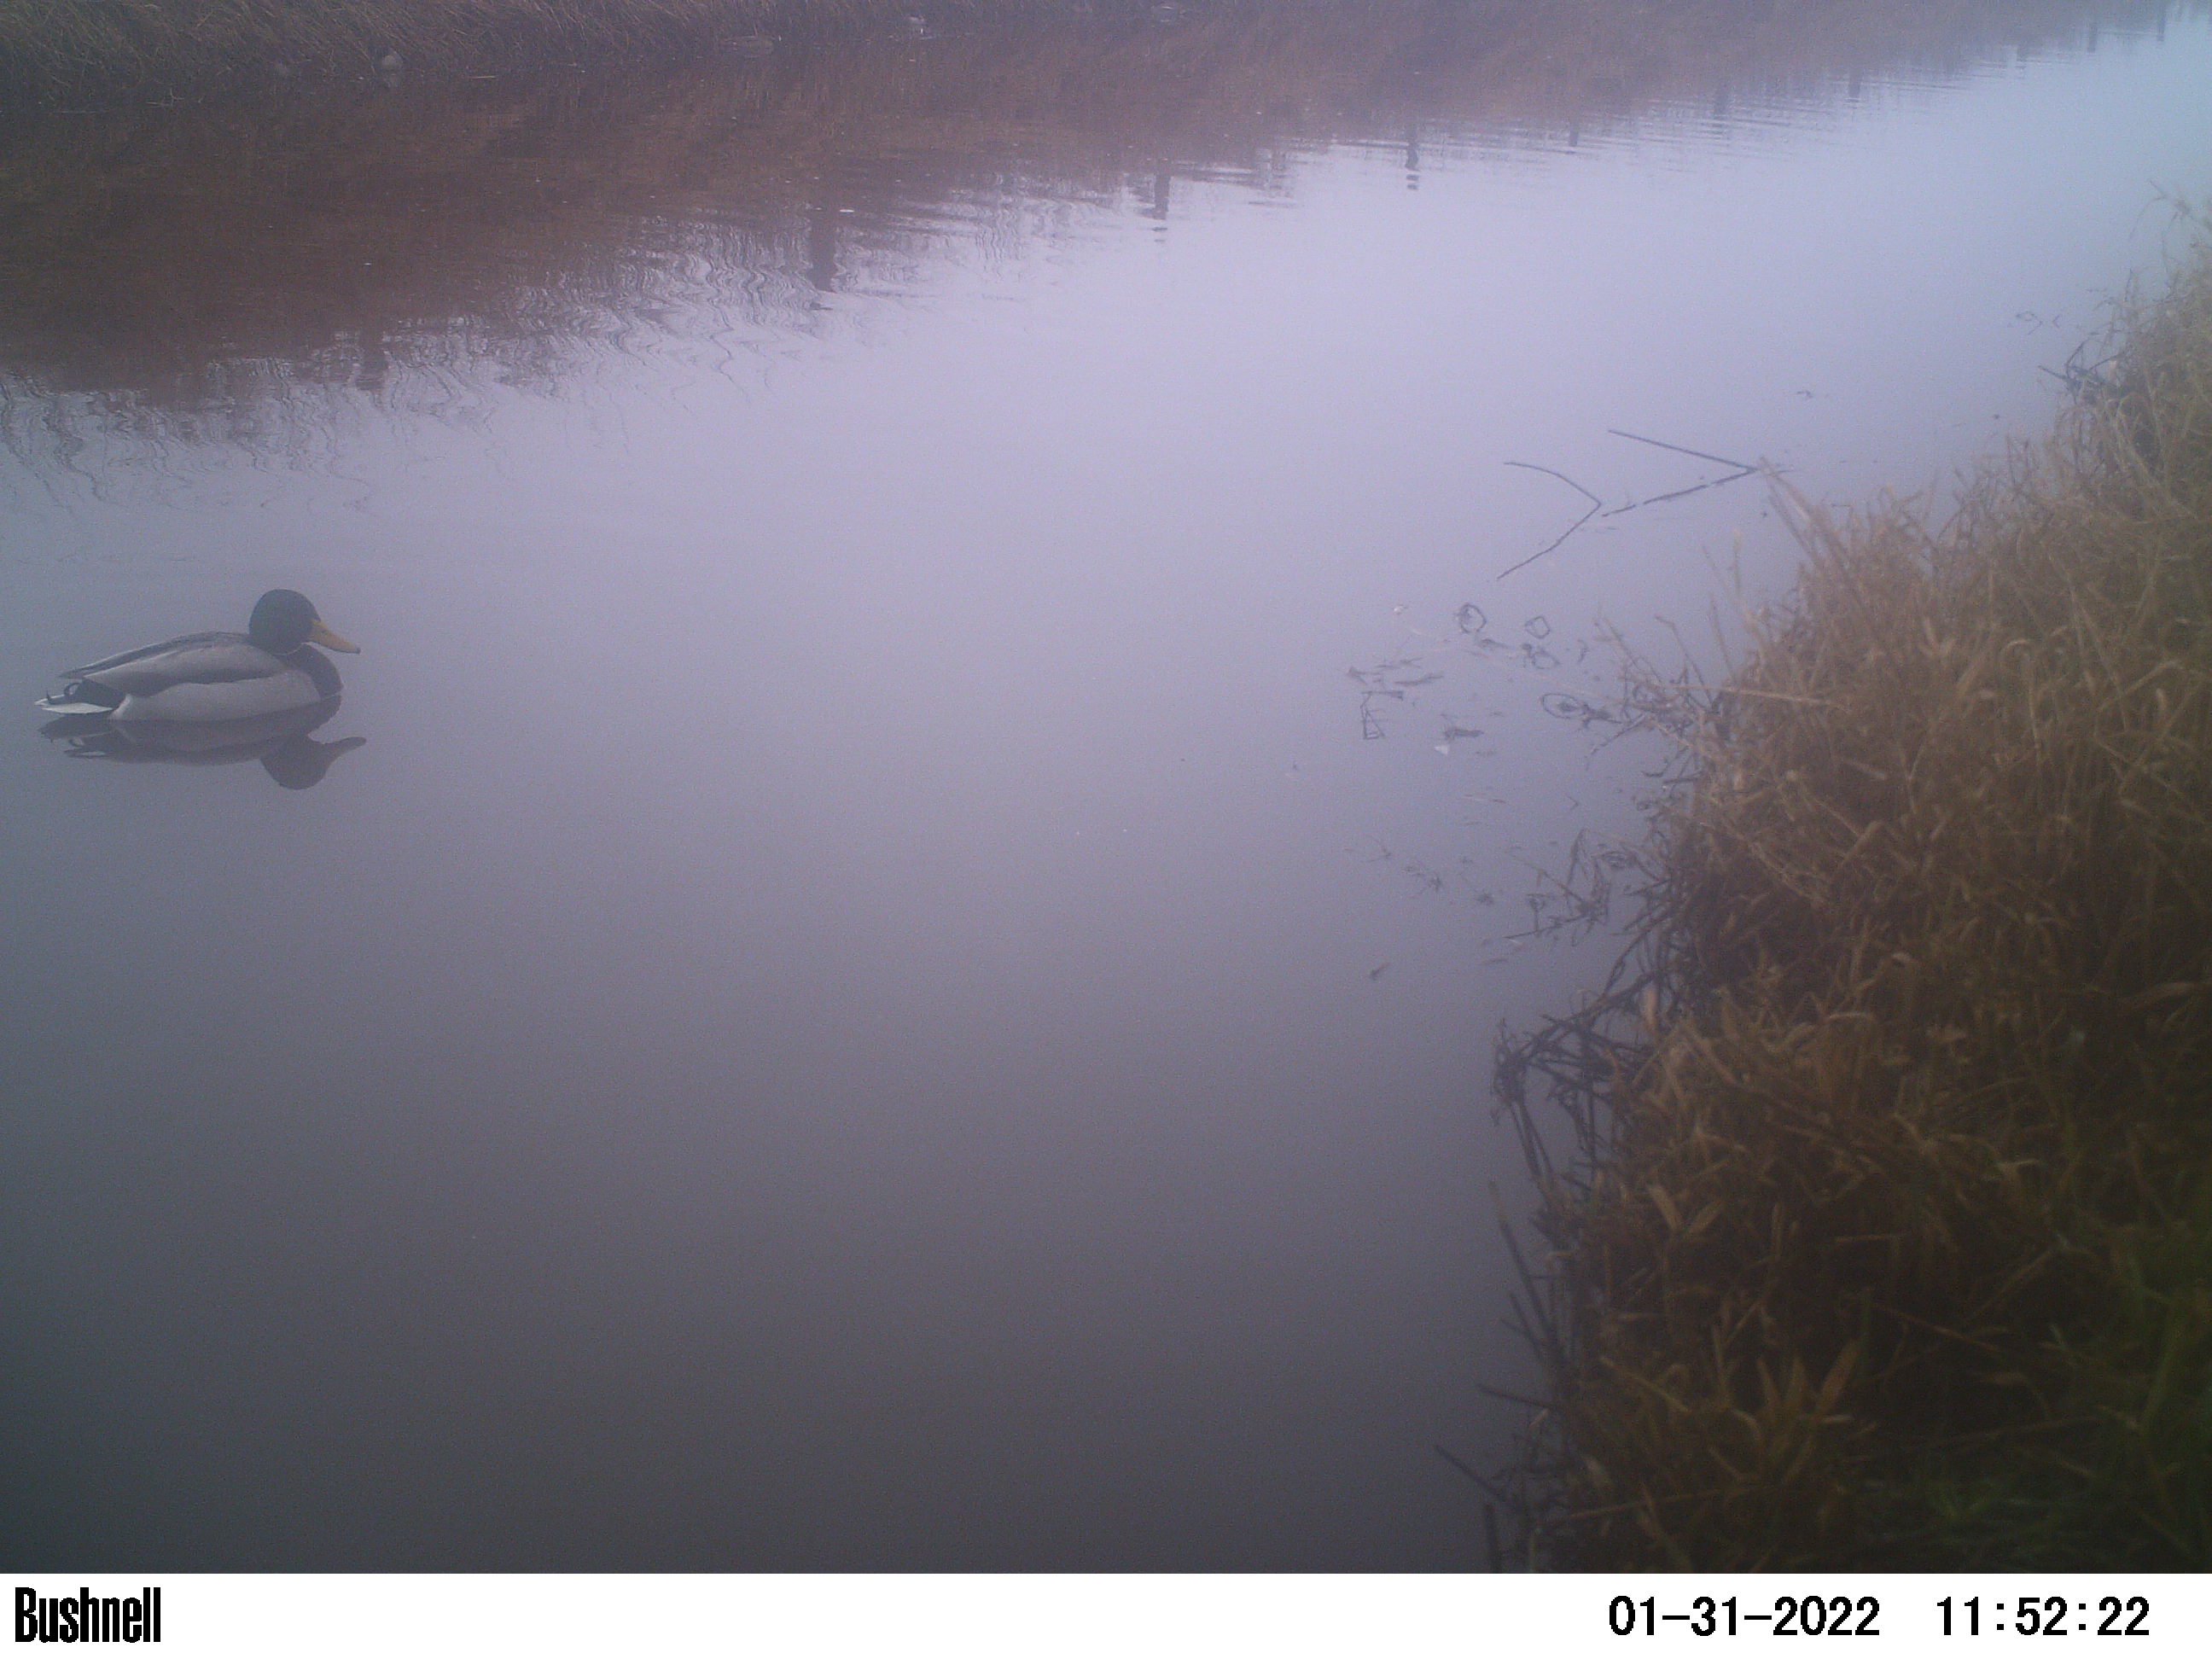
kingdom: Animalia
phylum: Chordata
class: Aves
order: Anseriformes
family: Anatidae
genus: Anas
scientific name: Anas
